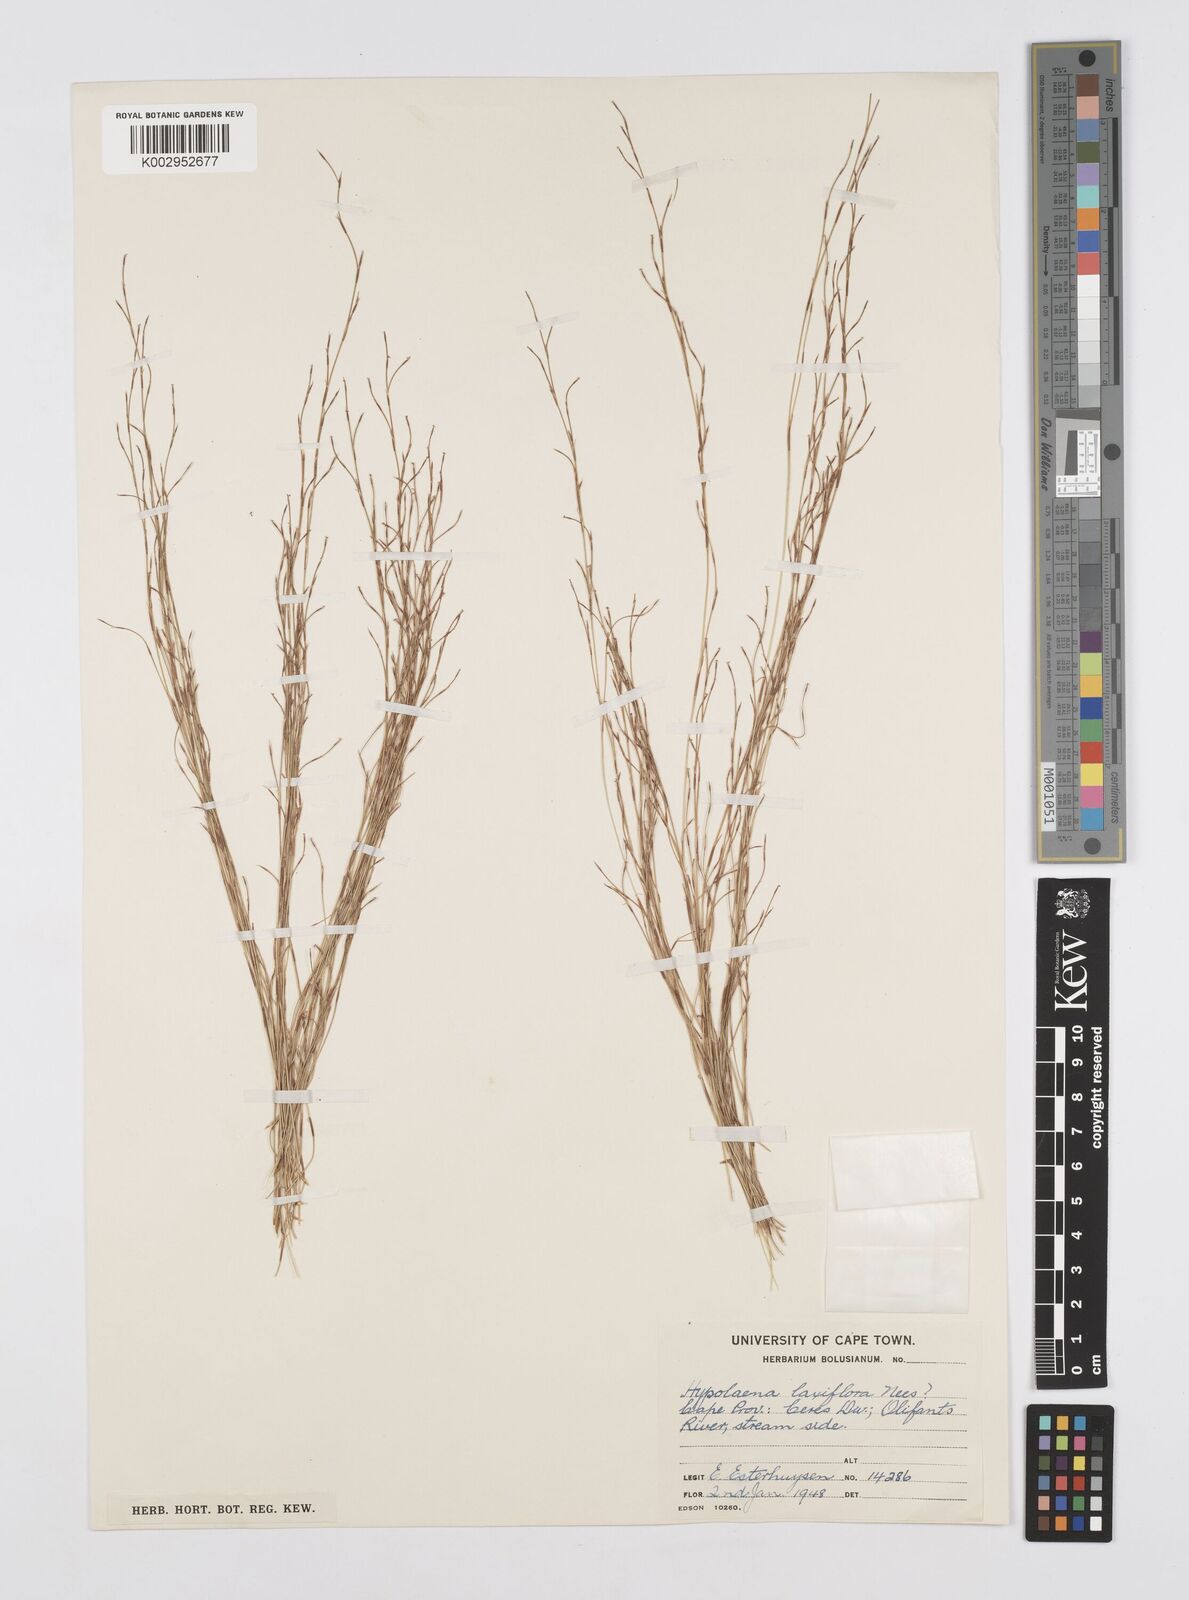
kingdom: Plantae
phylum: Tracheophyta
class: Liliopsida
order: Poales
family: Restionaceae
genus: Restio
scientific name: Restio longiaristatus
